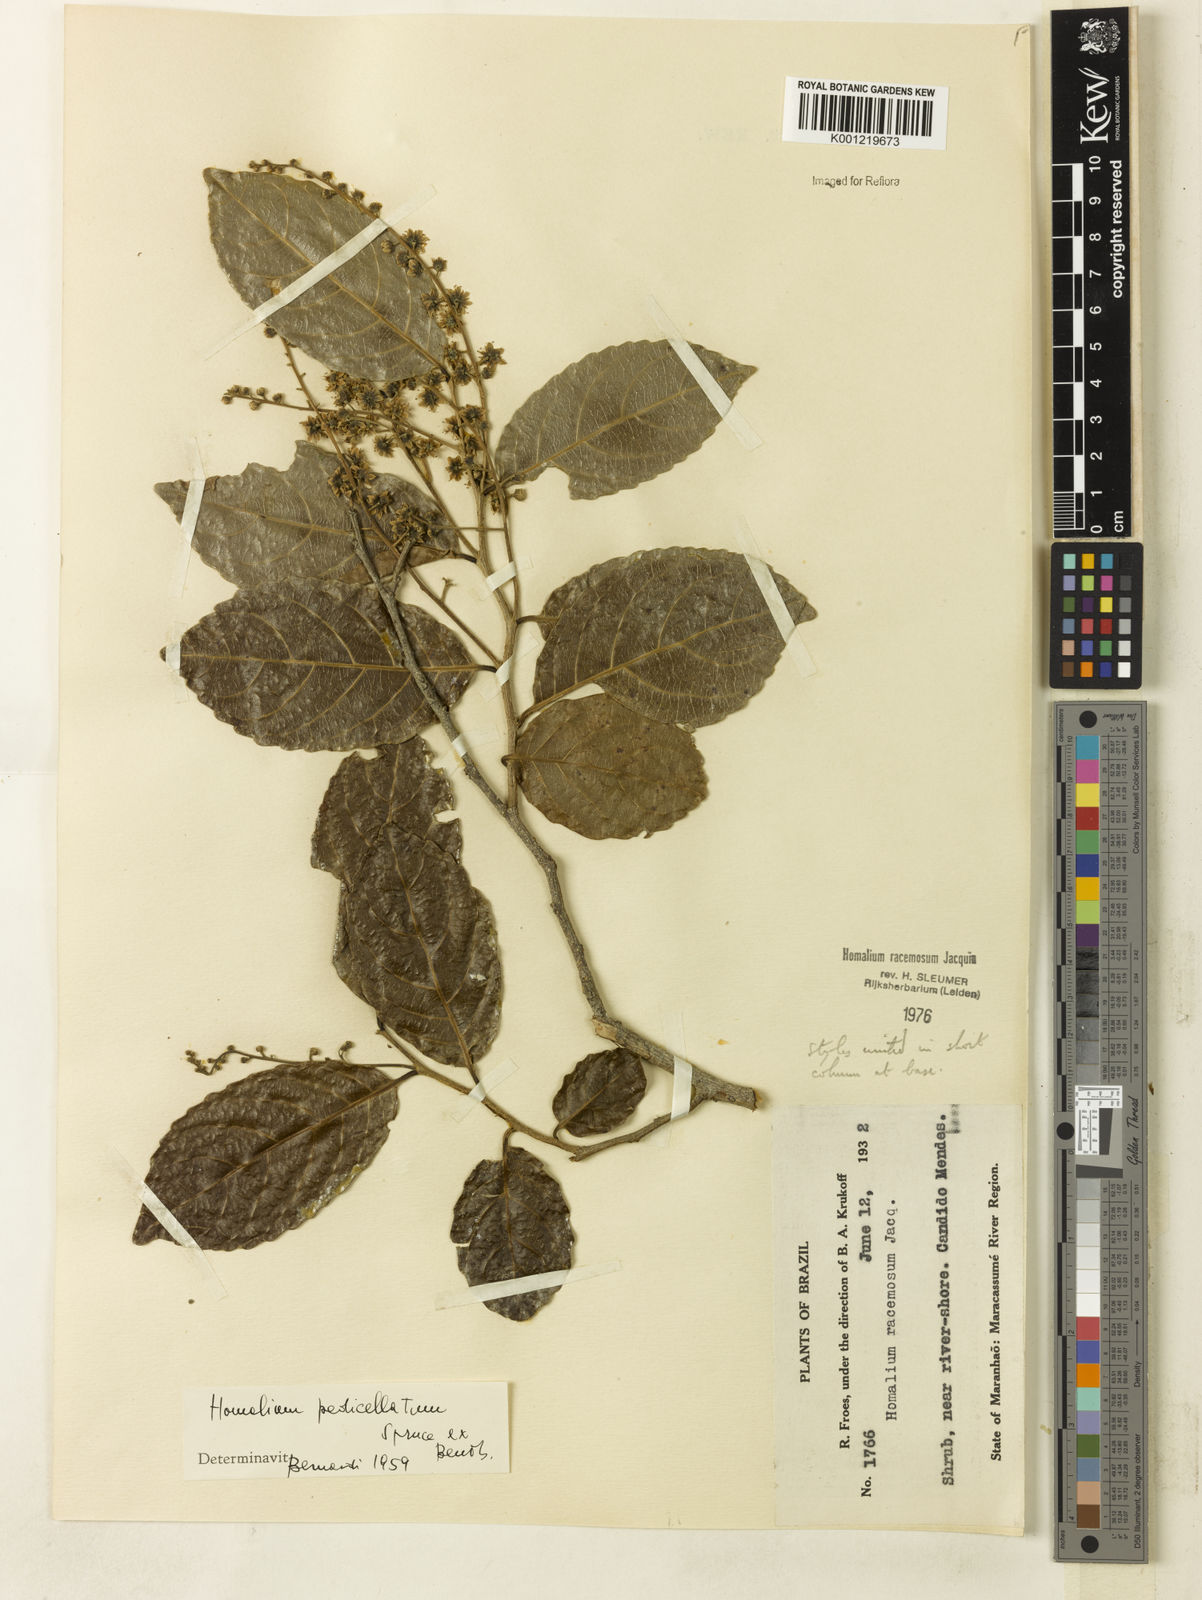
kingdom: Plantae
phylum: Tracheophyta
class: Magnoliopsida
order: Malpighiales
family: Salicaceae
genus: Homalium
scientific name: Homalium racemosum
